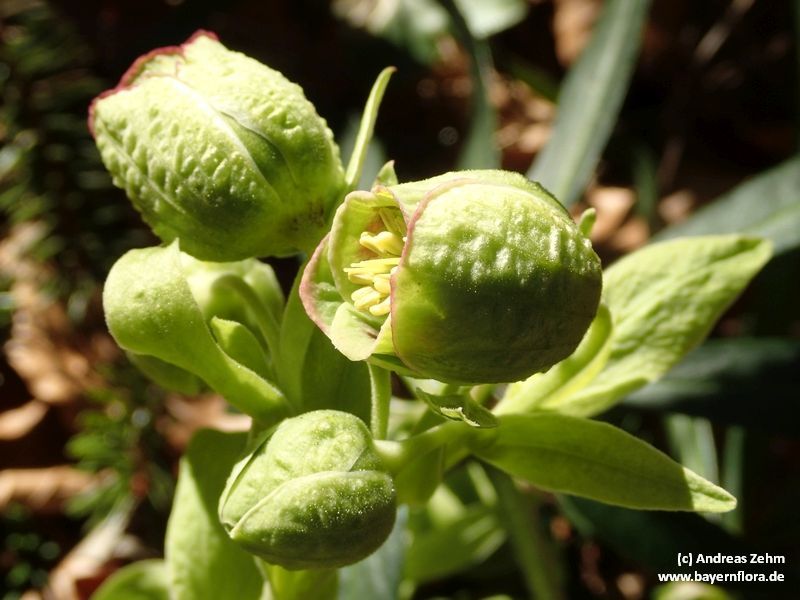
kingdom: Plantae
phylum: Tracheophyta
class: Magnoliopsida
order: Ranunculales
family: Ranunculaceae
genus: Helleborus
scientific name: Helleborus foetidus
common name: Stinking hellebore
